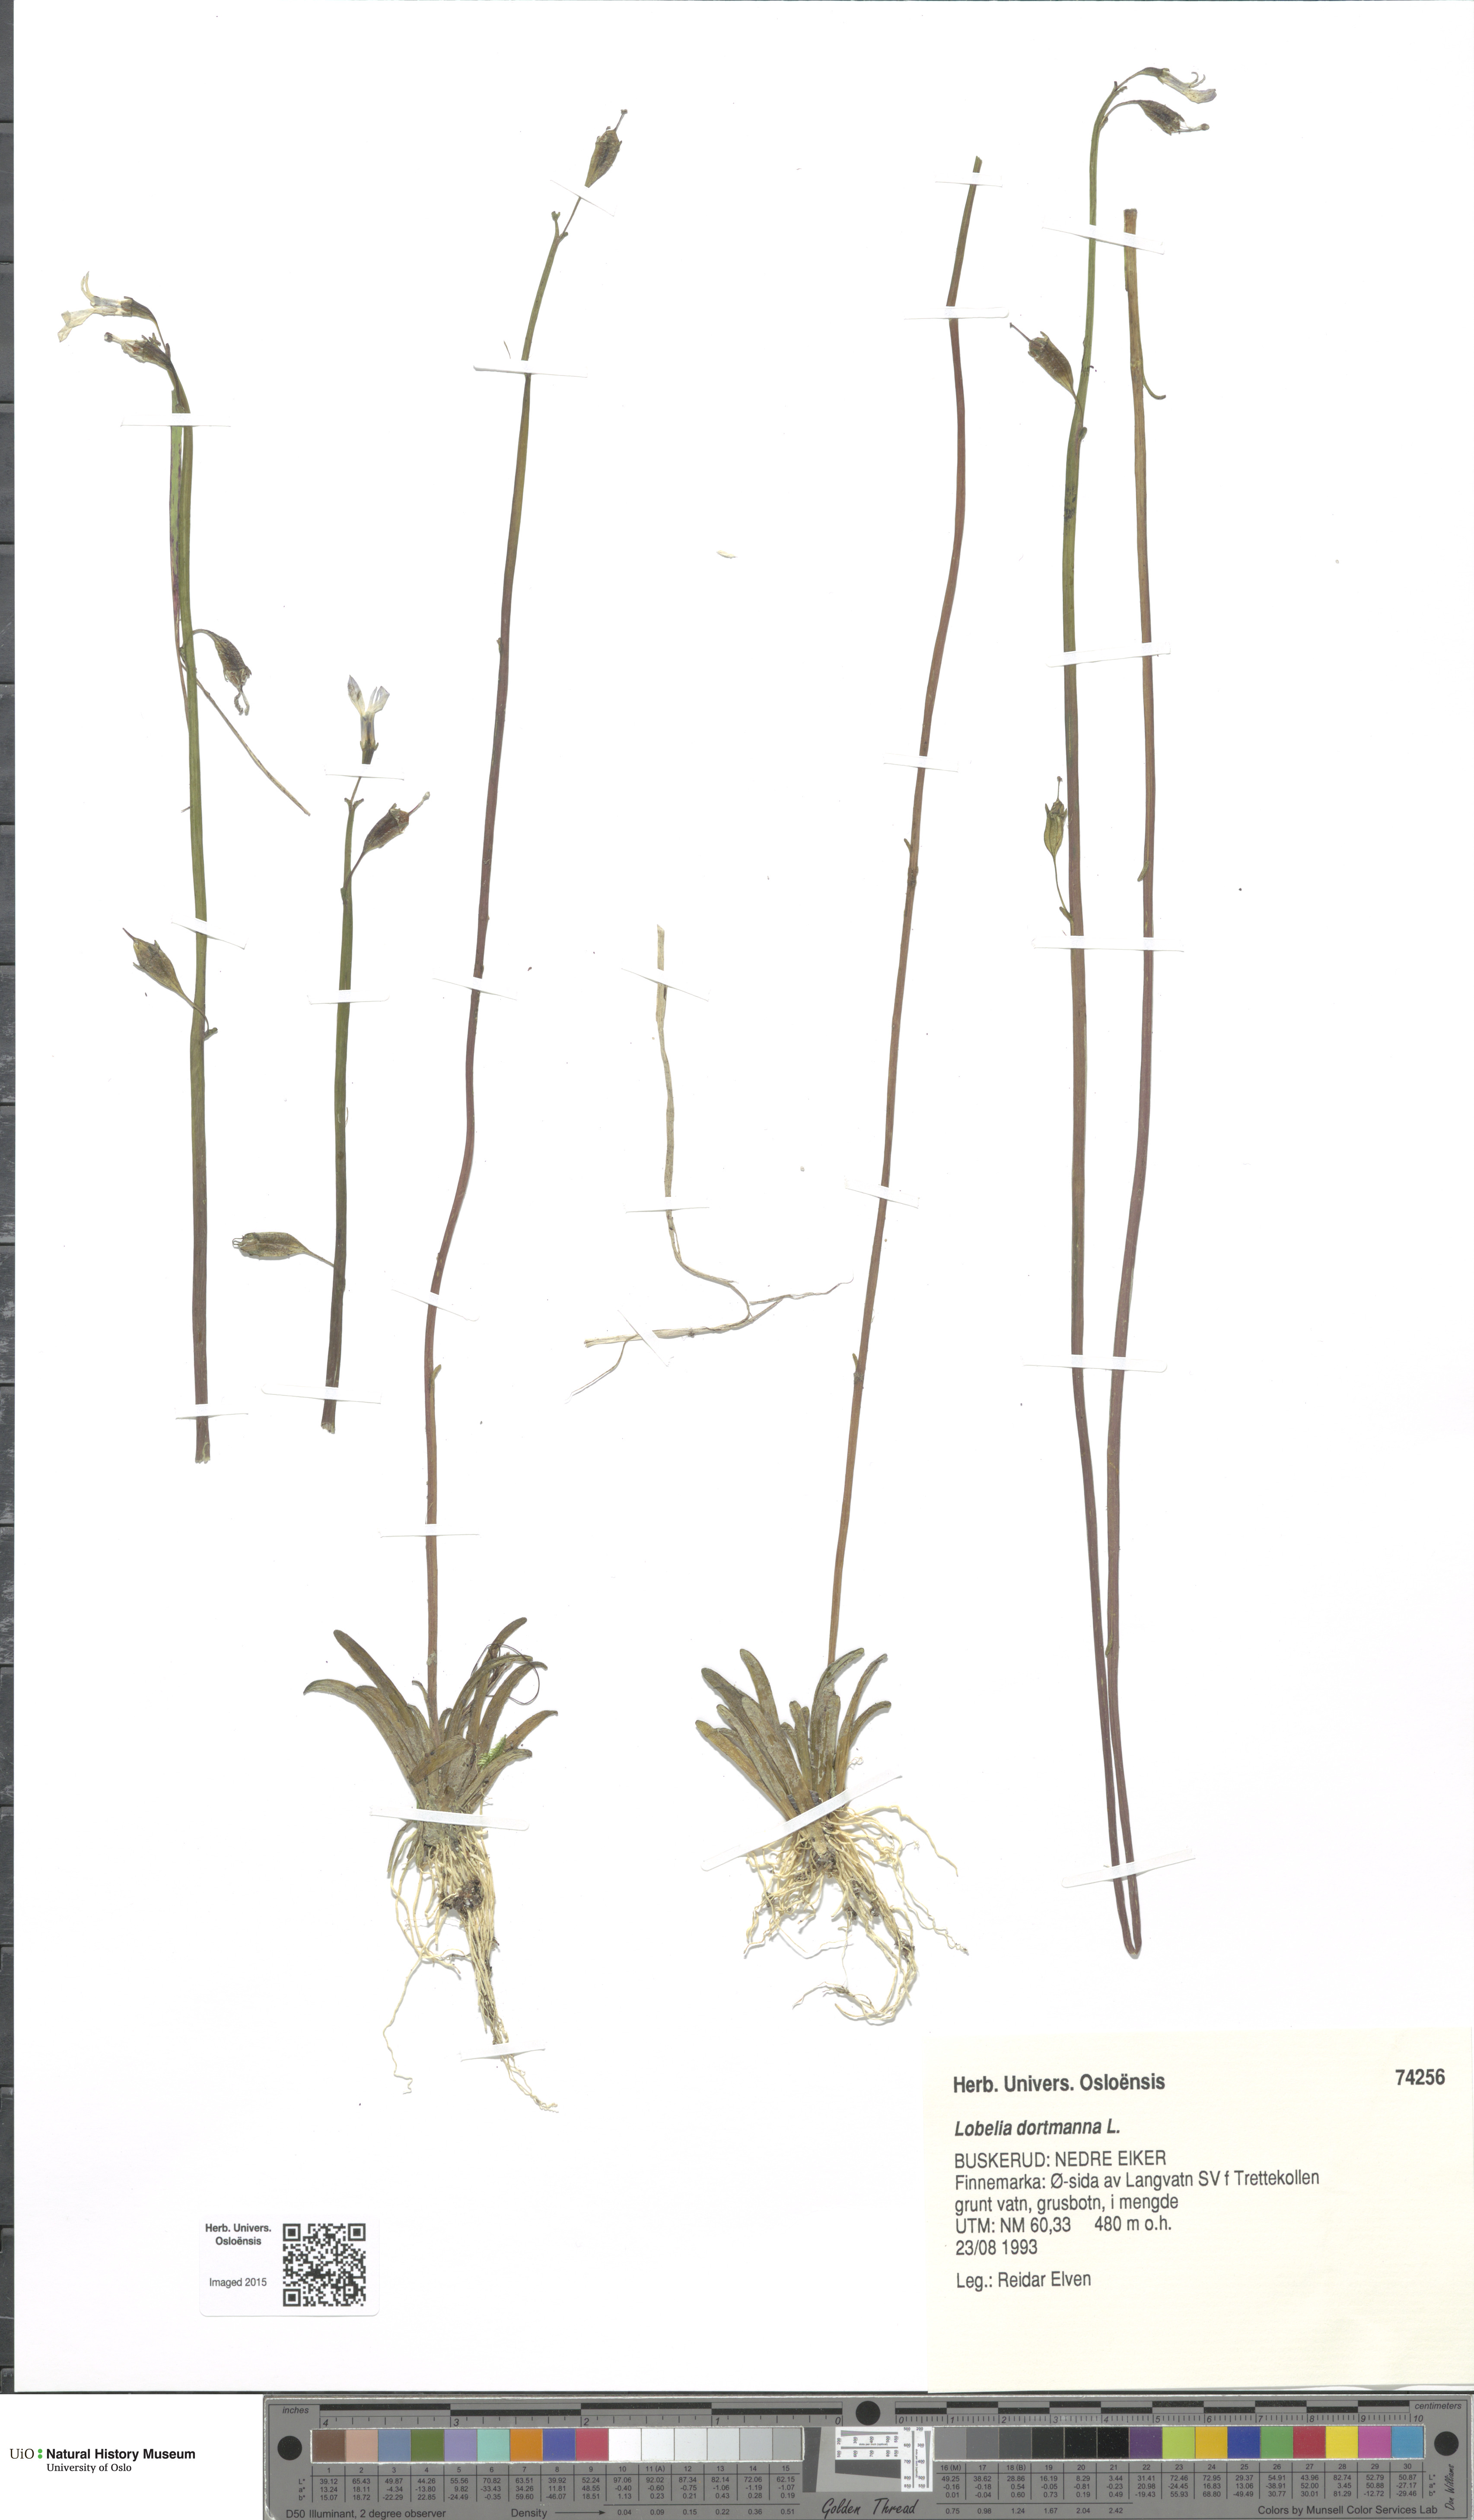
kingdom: Plantae
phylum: Tracheophyta
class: Magnoliopsida
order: Asterales
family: Campanulaceae
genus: Lobelia
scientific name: Lobelia dortmanna
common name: Water lobelia
